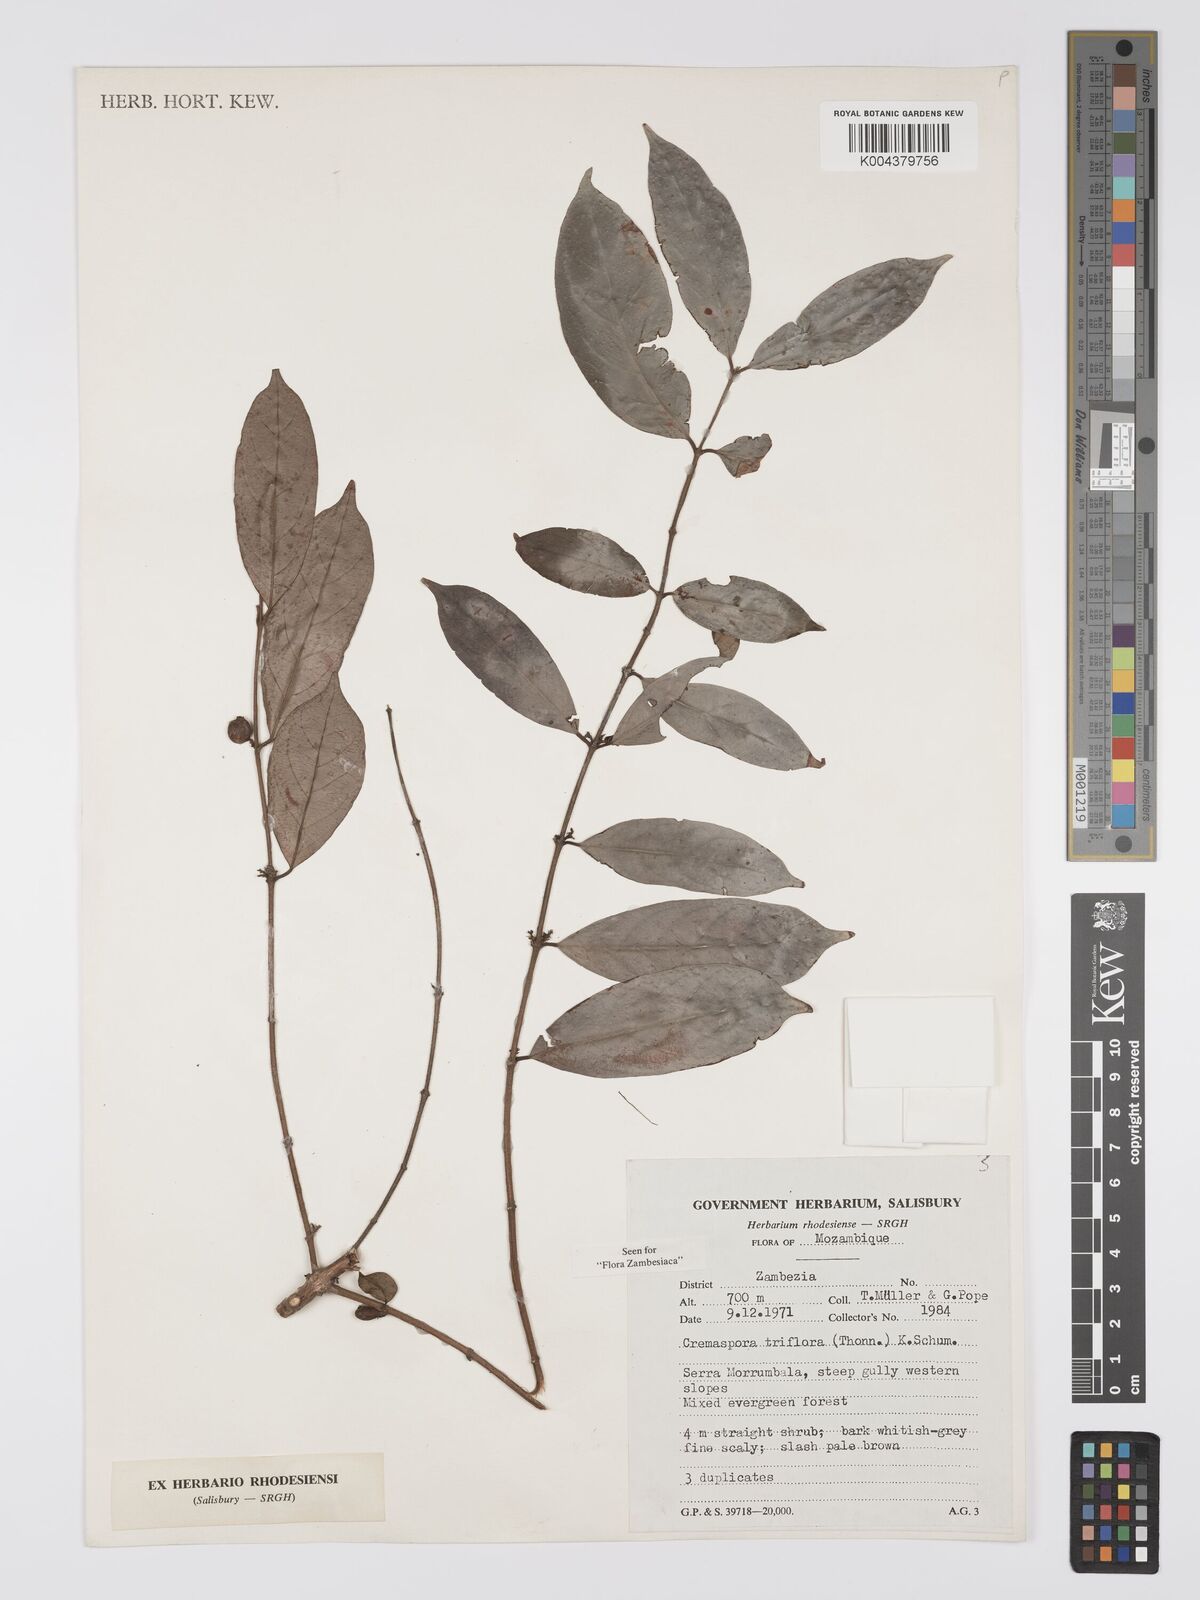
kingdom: Plantae
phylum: Tracheophyta
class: Magnoliopsida
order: Gentianales
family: Rubiaceae
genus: Cremaspora
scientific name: Cremaspora triflora
